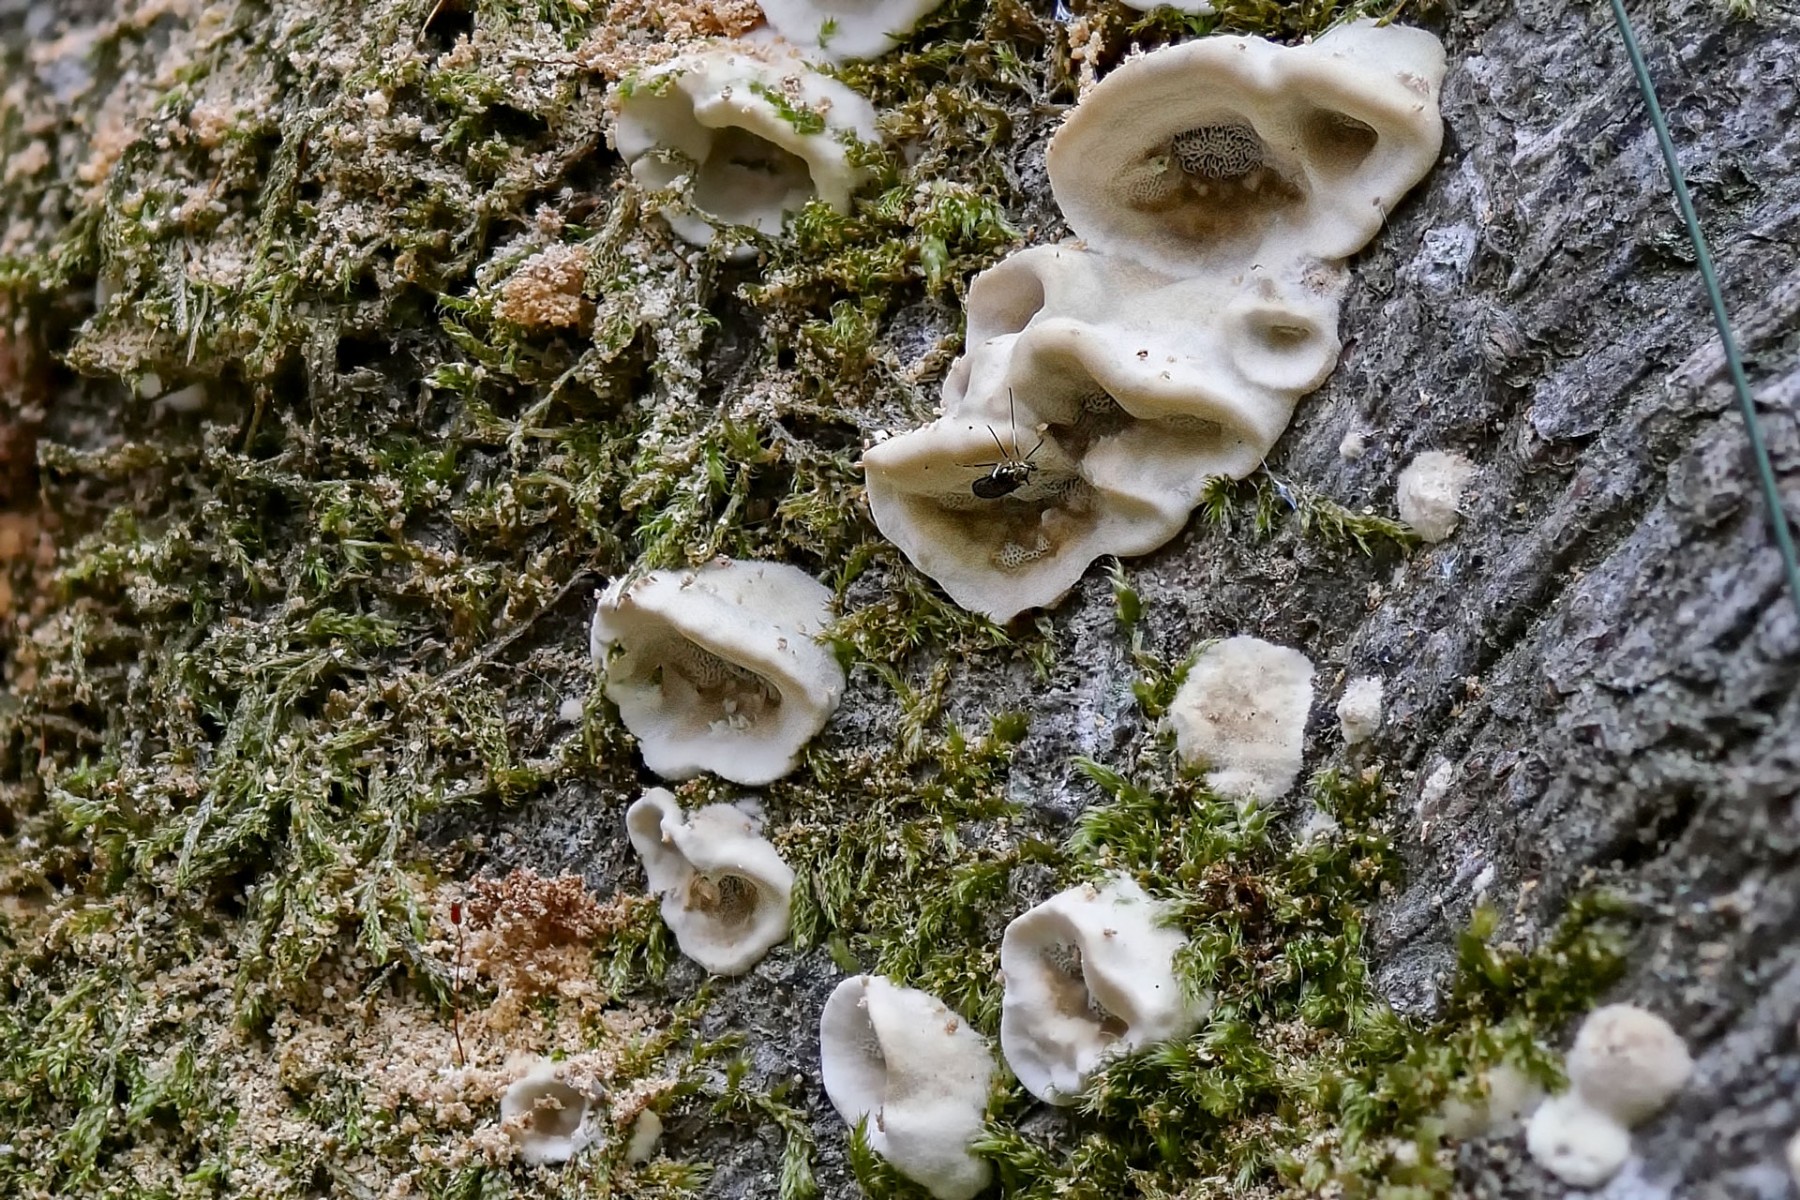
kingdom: Fungi
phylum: Basidiomycota
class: Agaricomycetes
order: Polyporales
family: Phanerochaetaceae
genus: Bjerkandera
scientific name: Bjerkandera adusta
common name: sveden sodporesvamp
